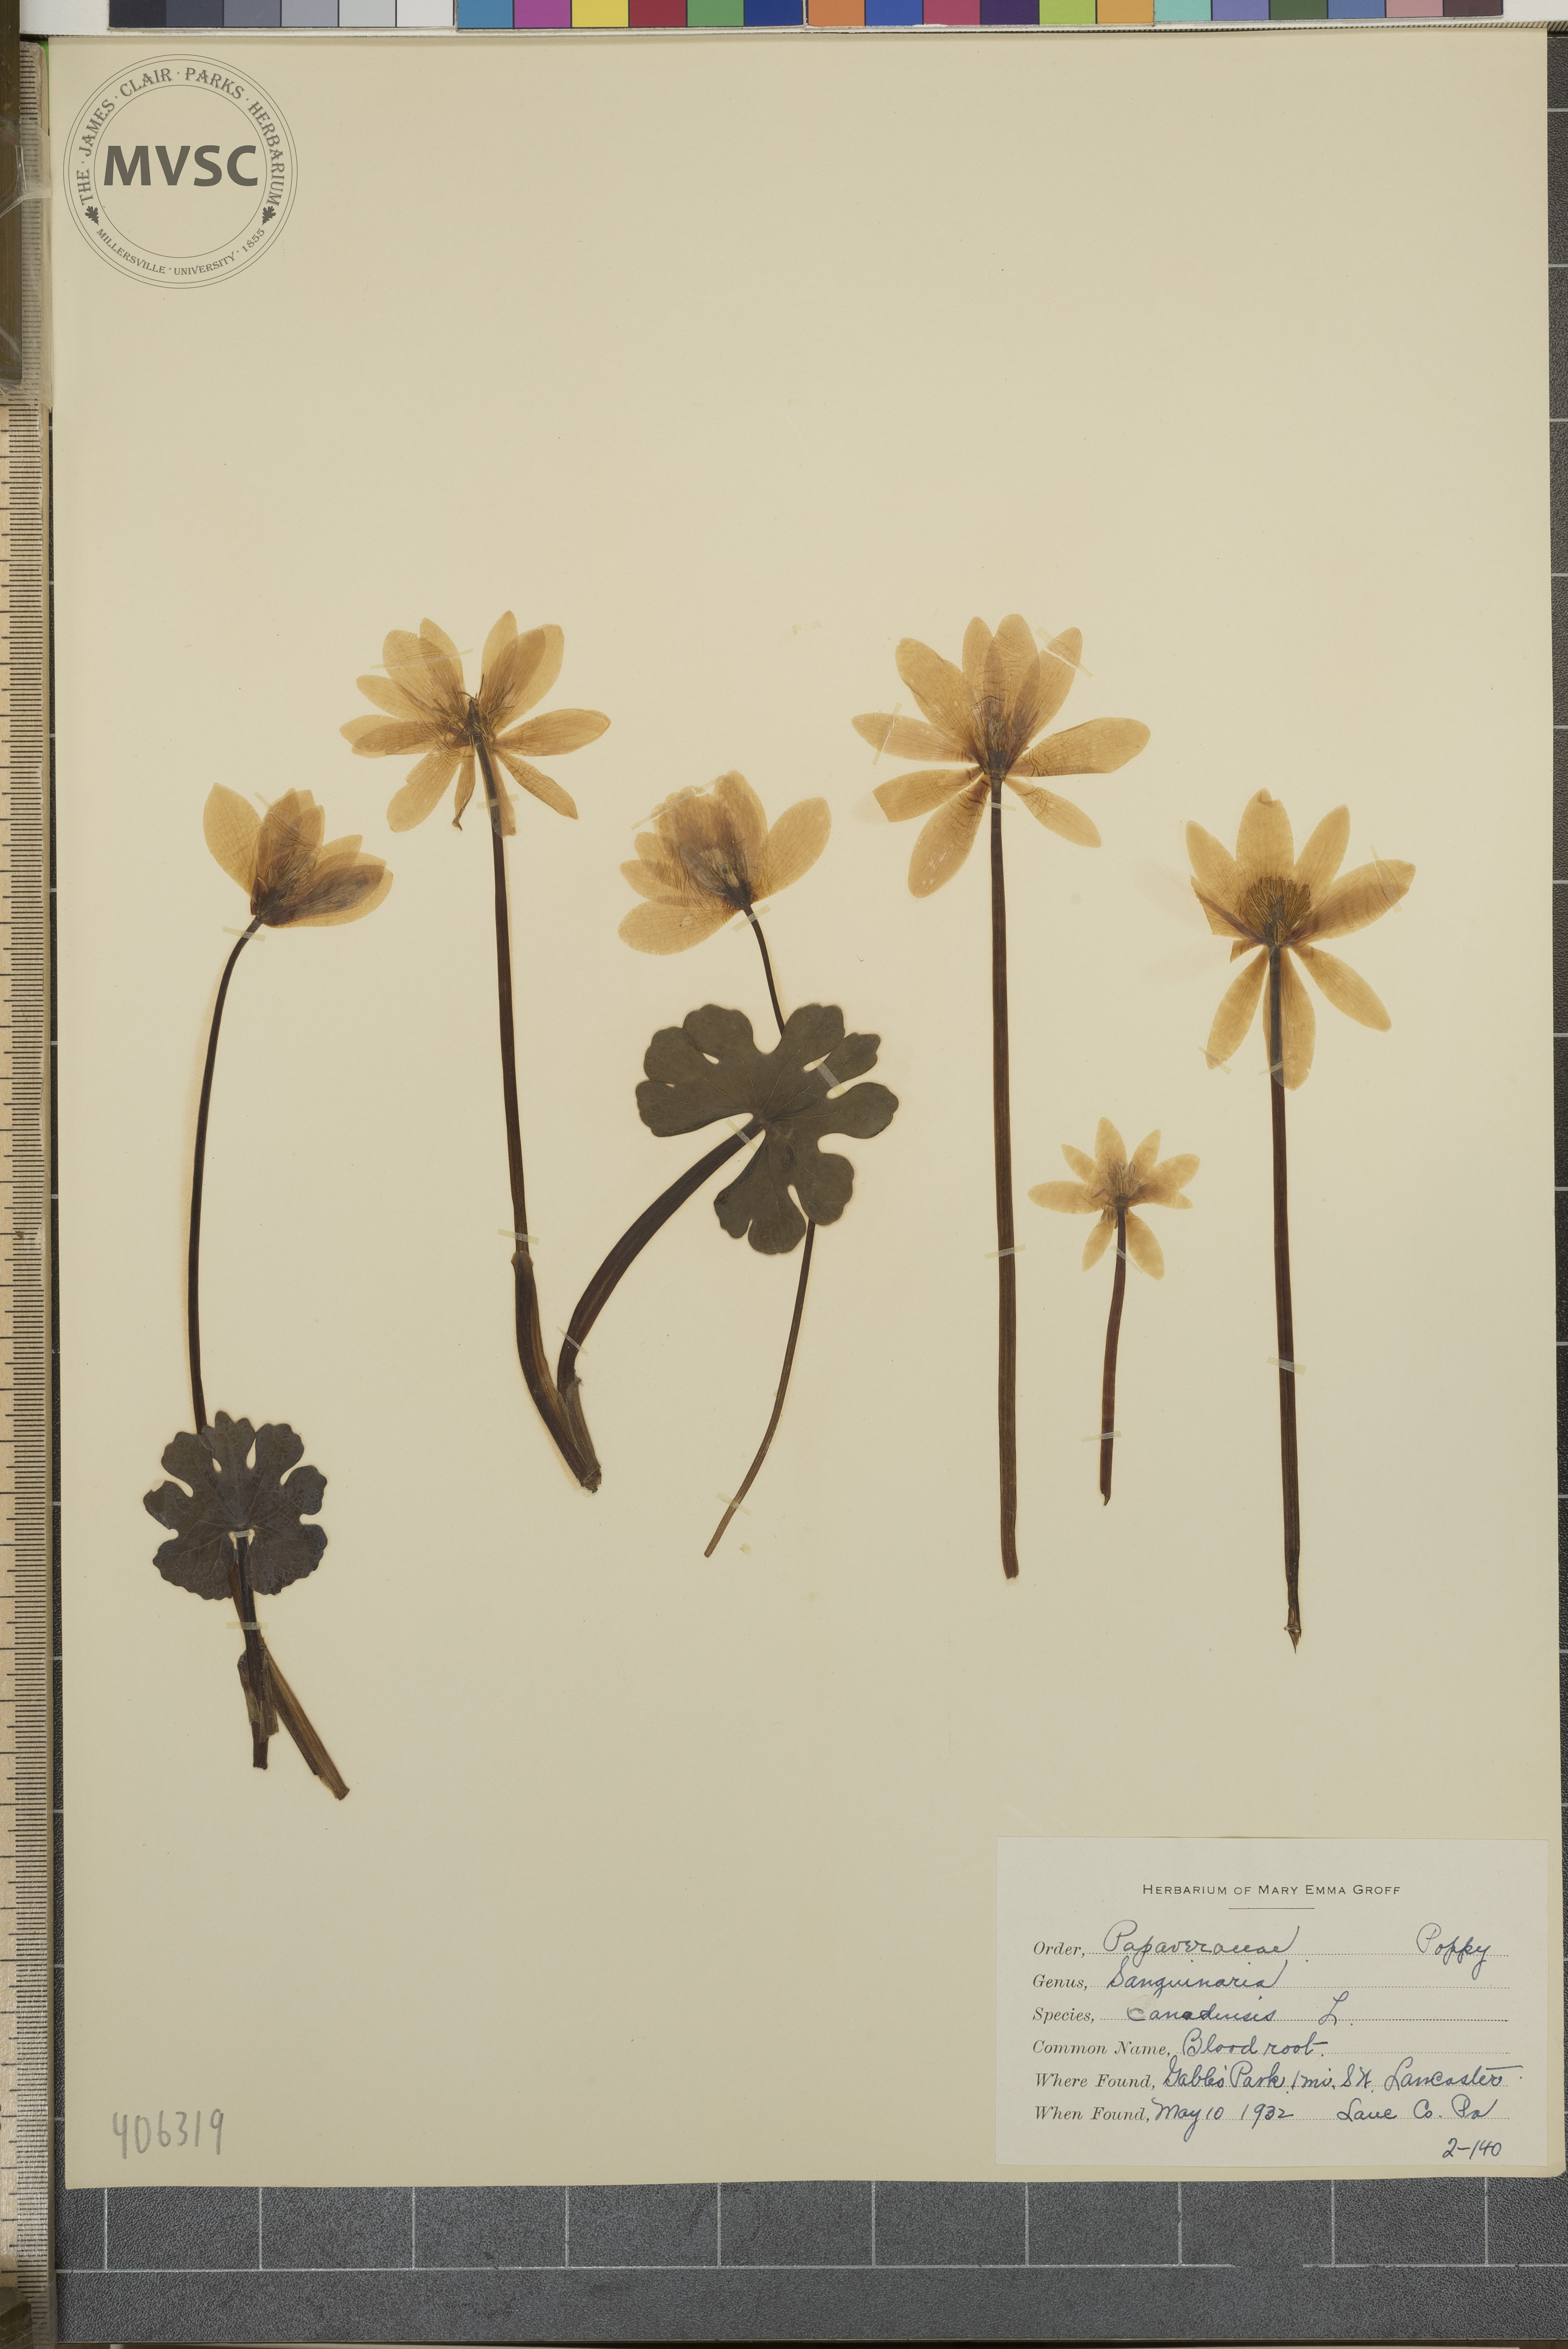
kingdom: Plantae
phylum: Tracheophyta
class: Magnoliopsida
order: Ranunculales
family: Papaveraceae
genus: Sanguinaria
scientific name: Sanguinaria canadensis
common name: Blood root
